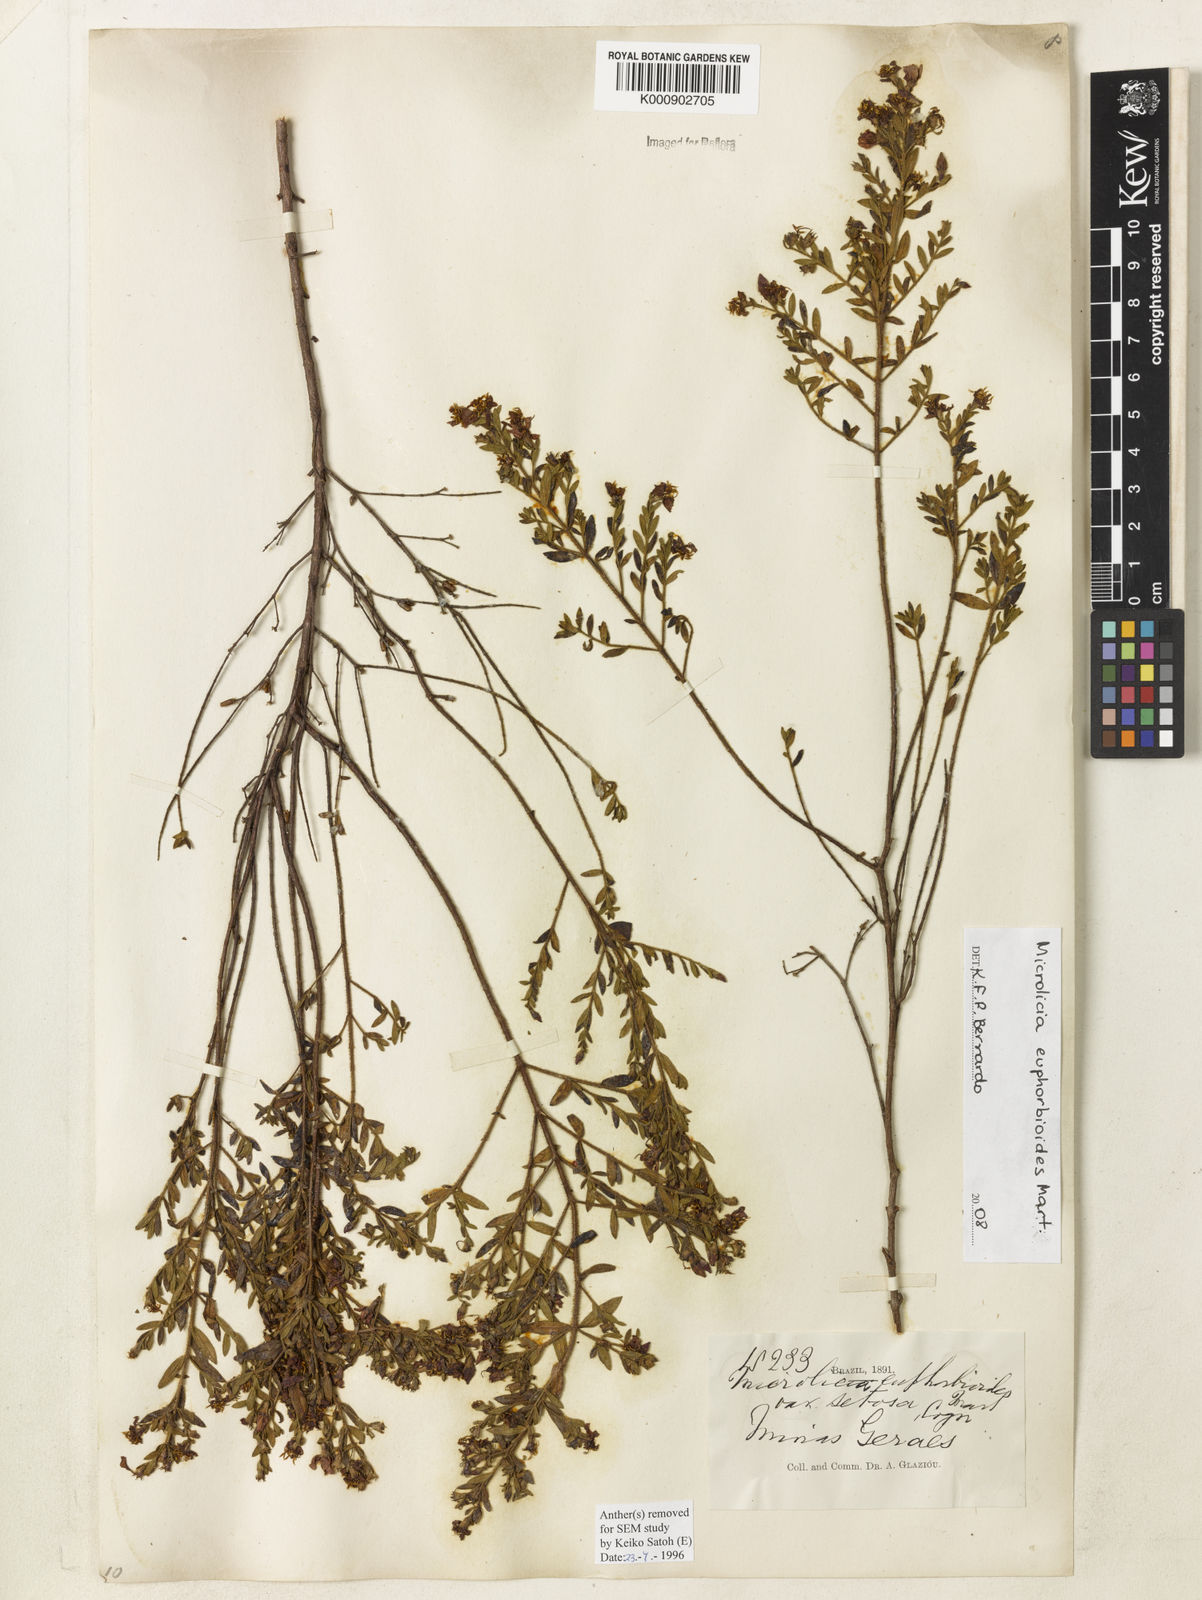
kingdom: Plantae
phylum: Tracheophyta
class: Magnoliopsida
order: Myrtales
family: Melastomataceae
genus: Microlicia
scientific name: Microlicia euphorbioides
